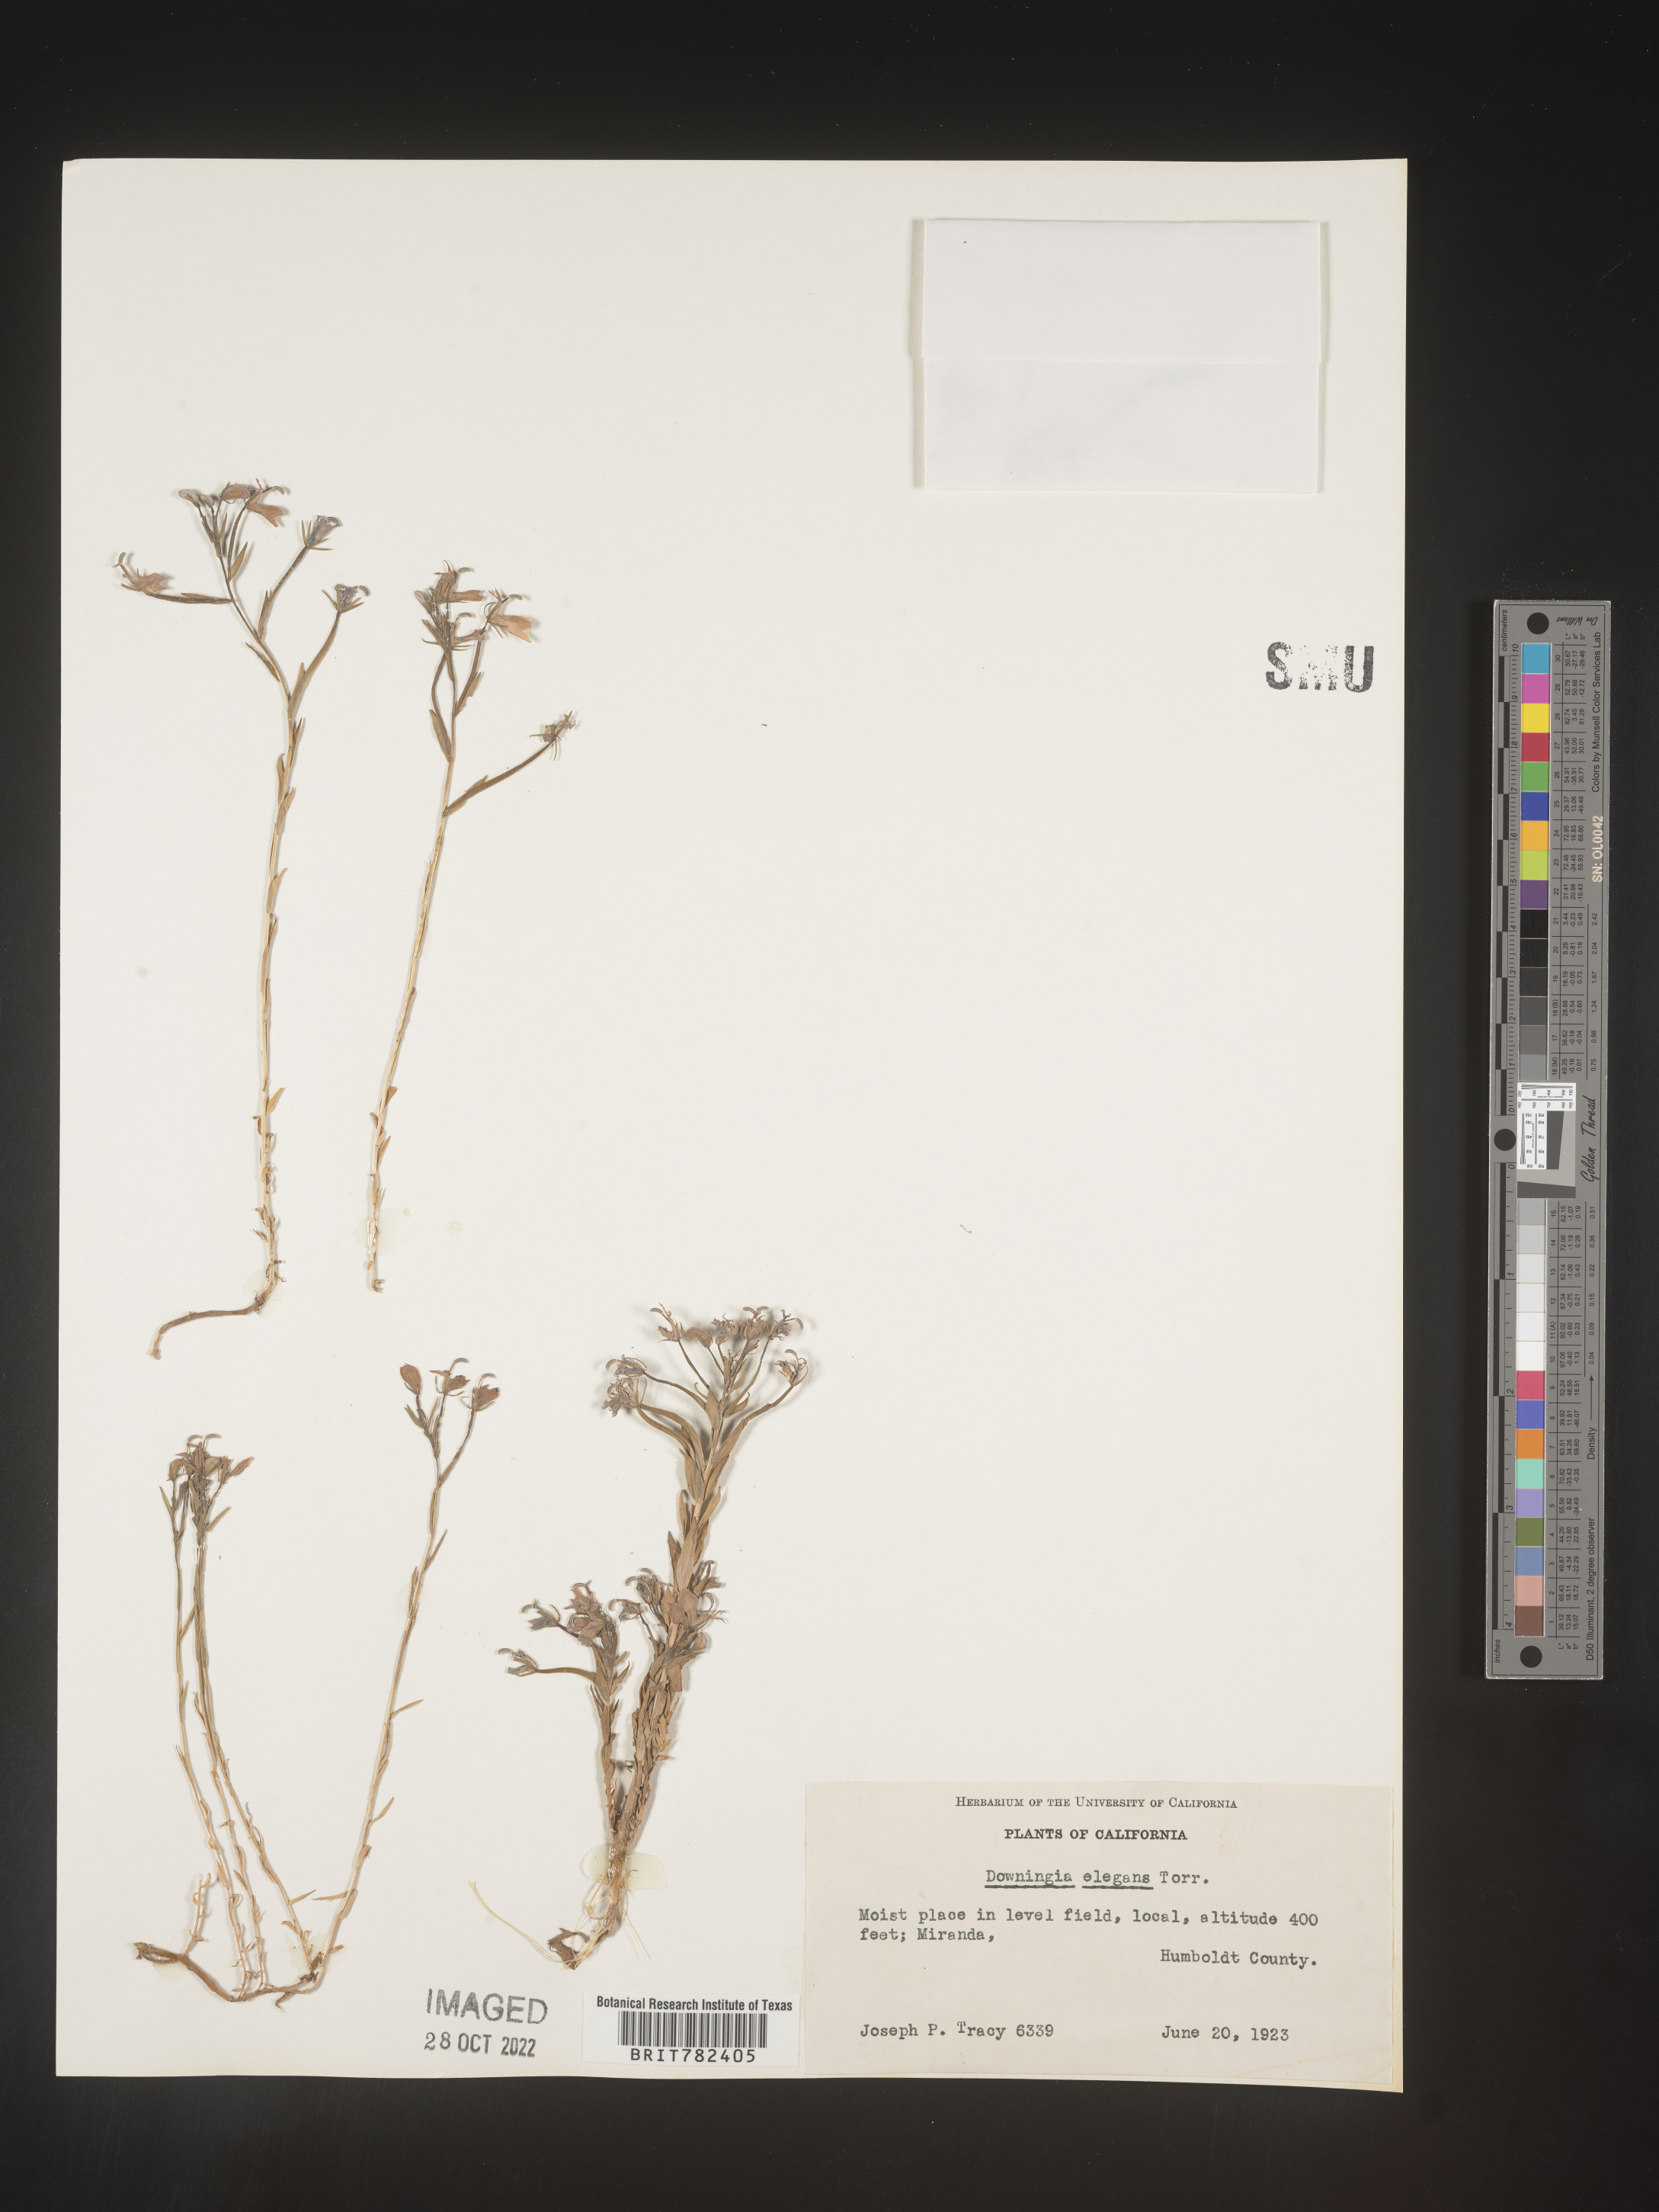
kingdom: Plantae
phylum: Tracheophyta
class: Magnoliopsida
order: Asterales
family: Campanulaceae
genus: Downingia
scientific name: Downingia
